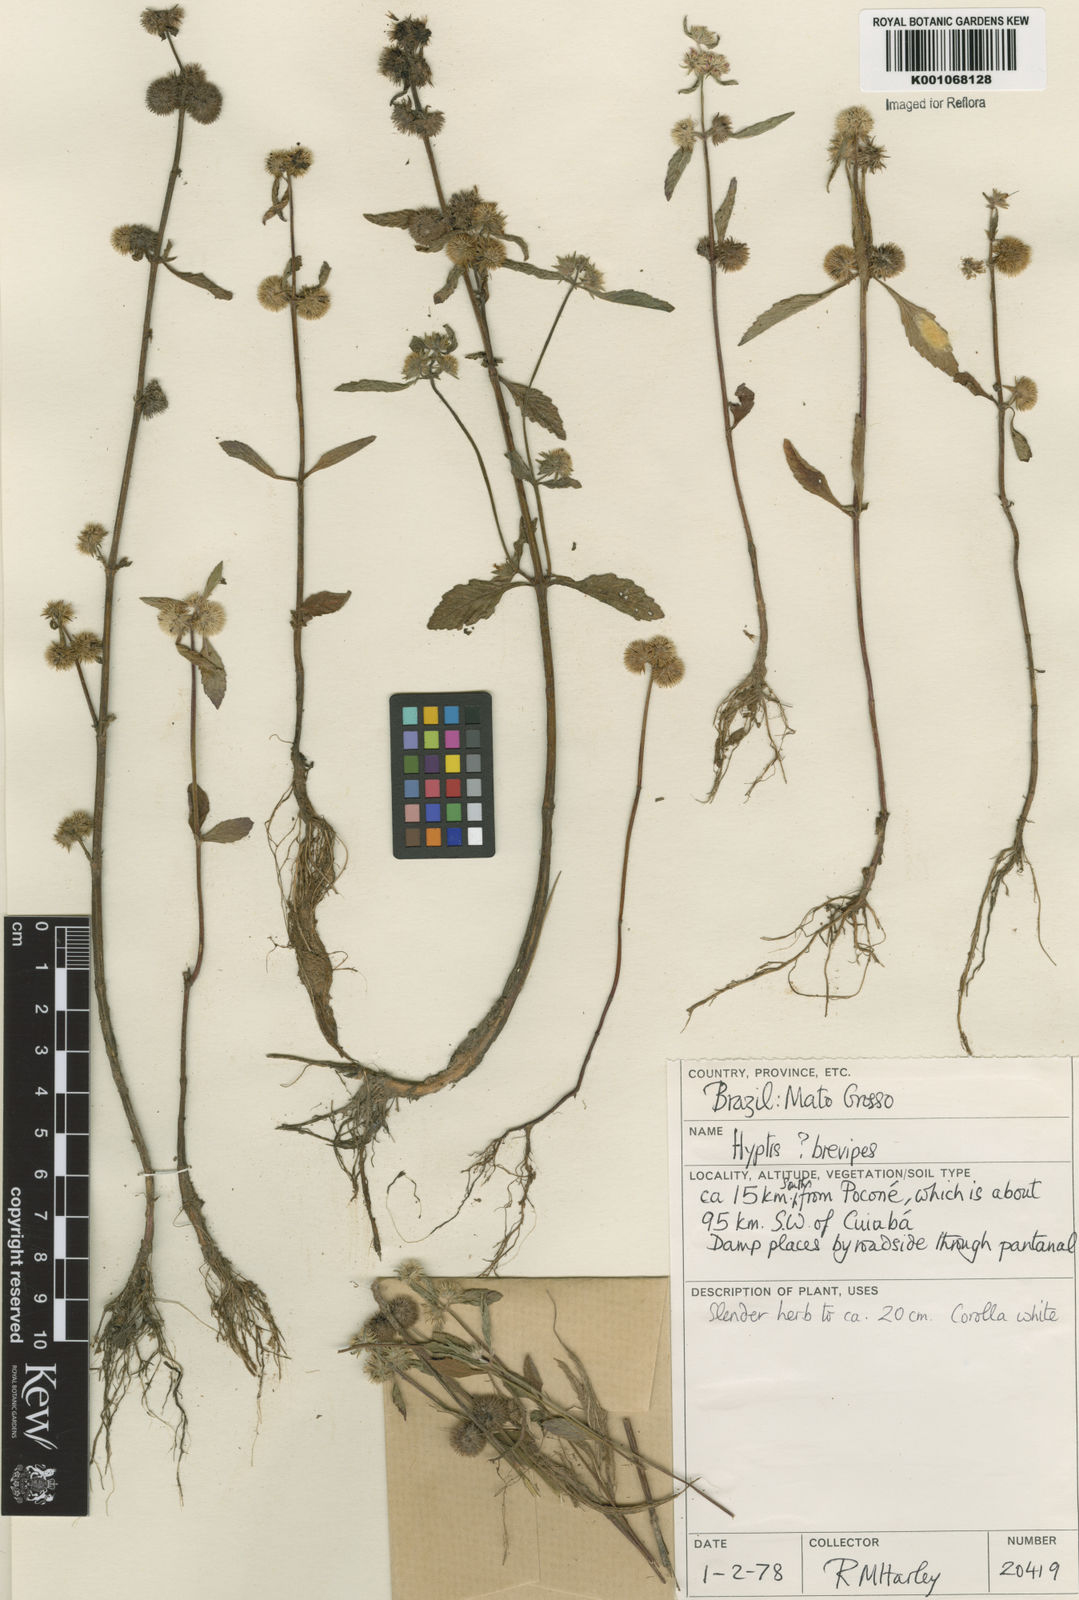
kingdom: Plantae
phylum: Tracheophyta
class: Magnoliopsida
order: Lamiales
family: Lamiaceae
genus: Hyptis
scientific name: Hyptis brevipes
